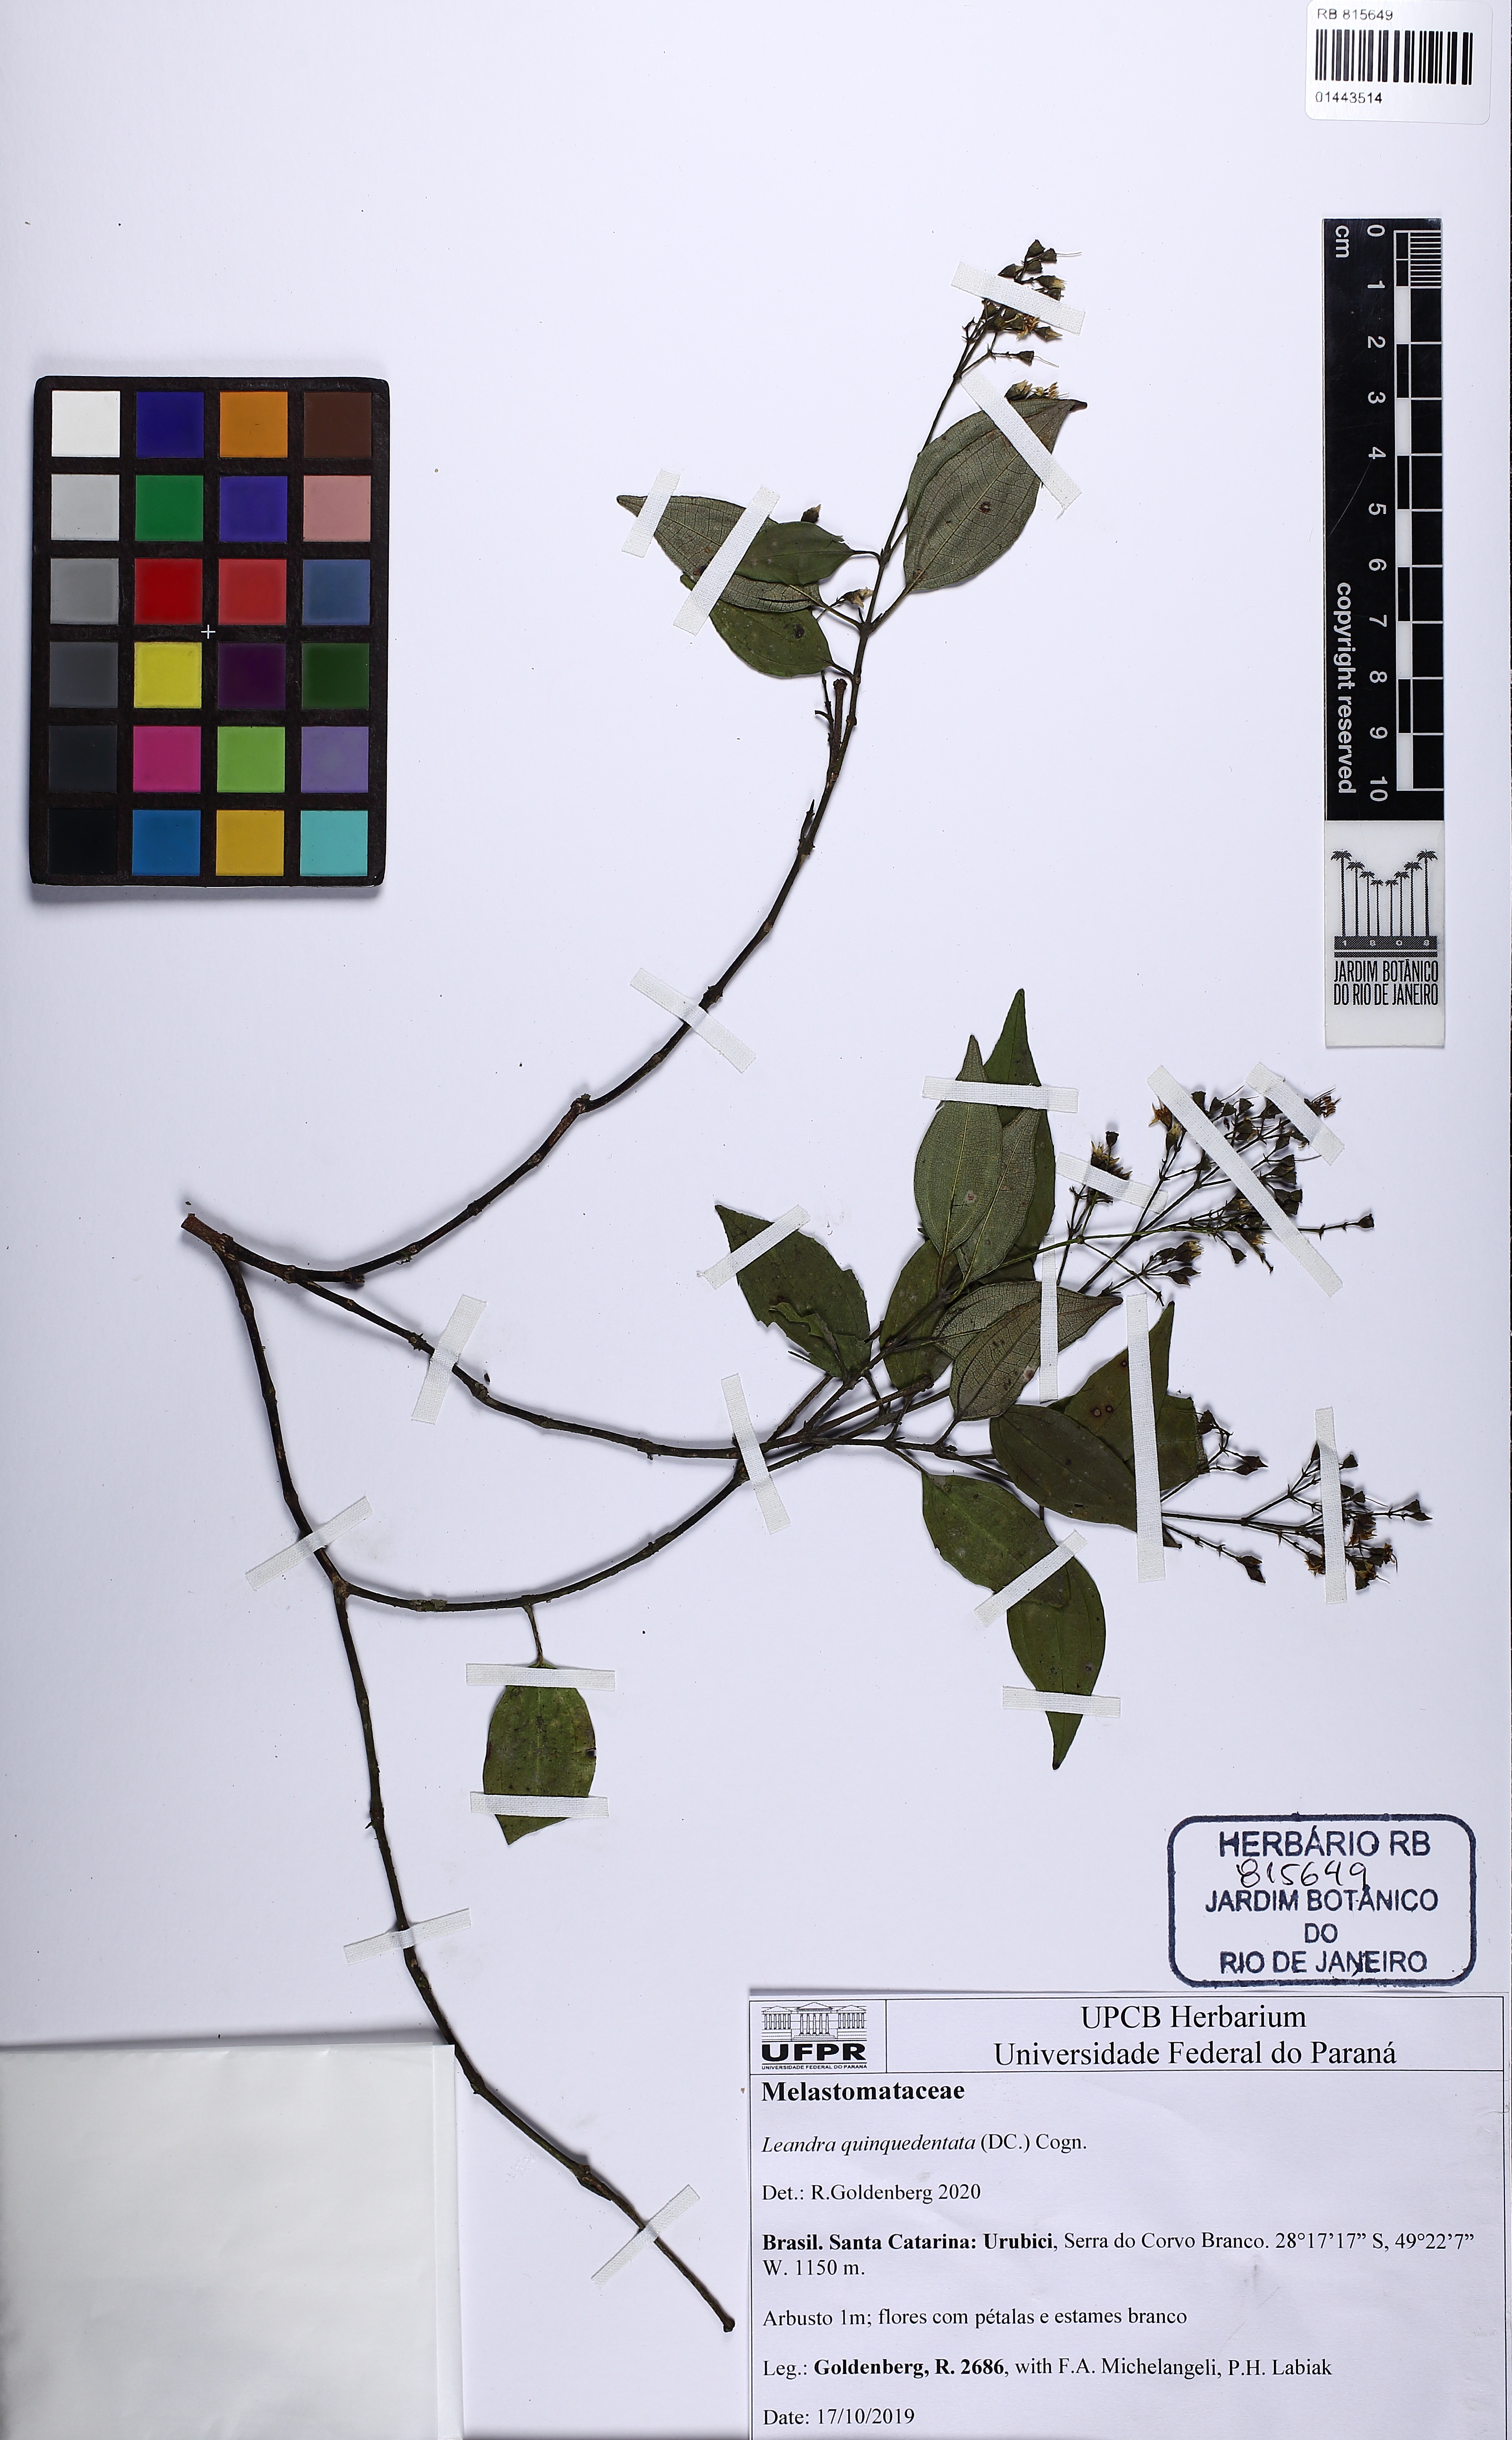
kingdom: Plantae
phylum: Tracheophyta
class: Magnoliopsida
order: Myrtales
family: Melastomataceae
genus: Miconia
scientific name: Miconia quinquedentata
